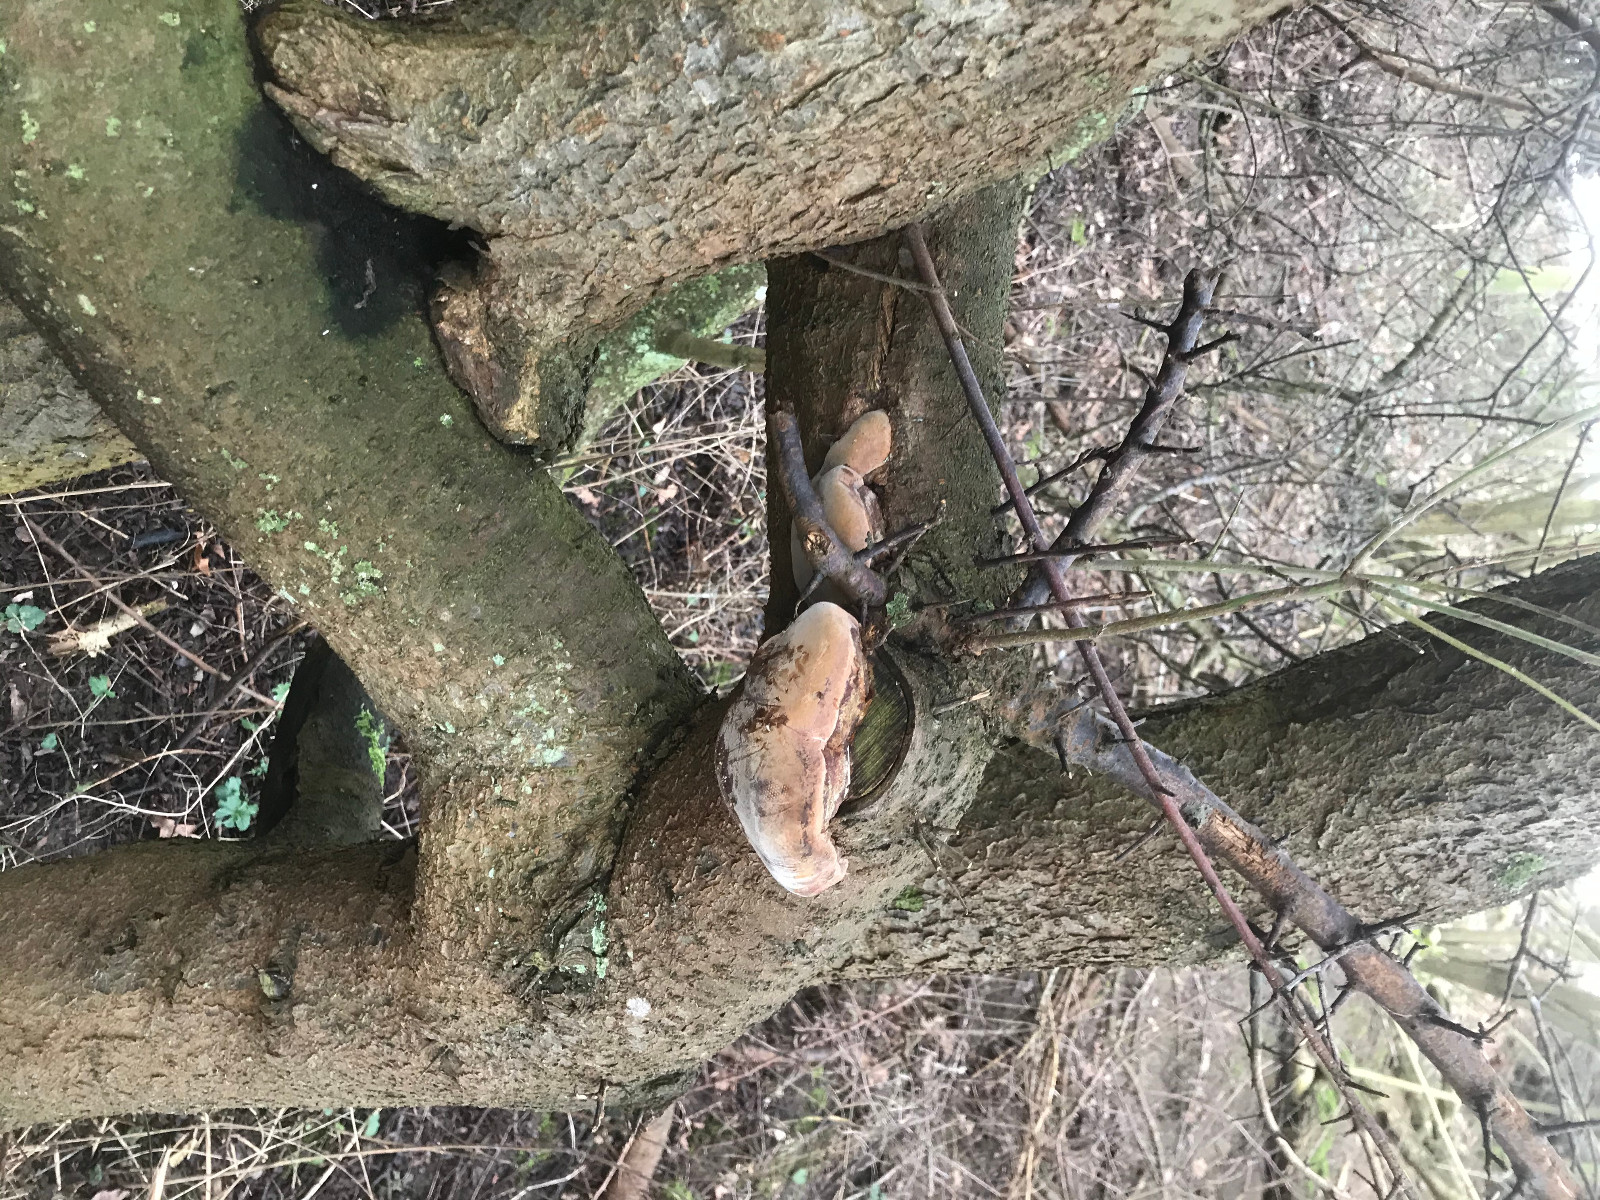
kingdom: Fungi
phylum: Basidiomycota
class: Agaricomycetes
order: Hymenochaetales
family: Hymenochaetaceae
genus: Phellinus
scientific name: Phellinus pomaceus
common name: blomme-ildporesvamp
